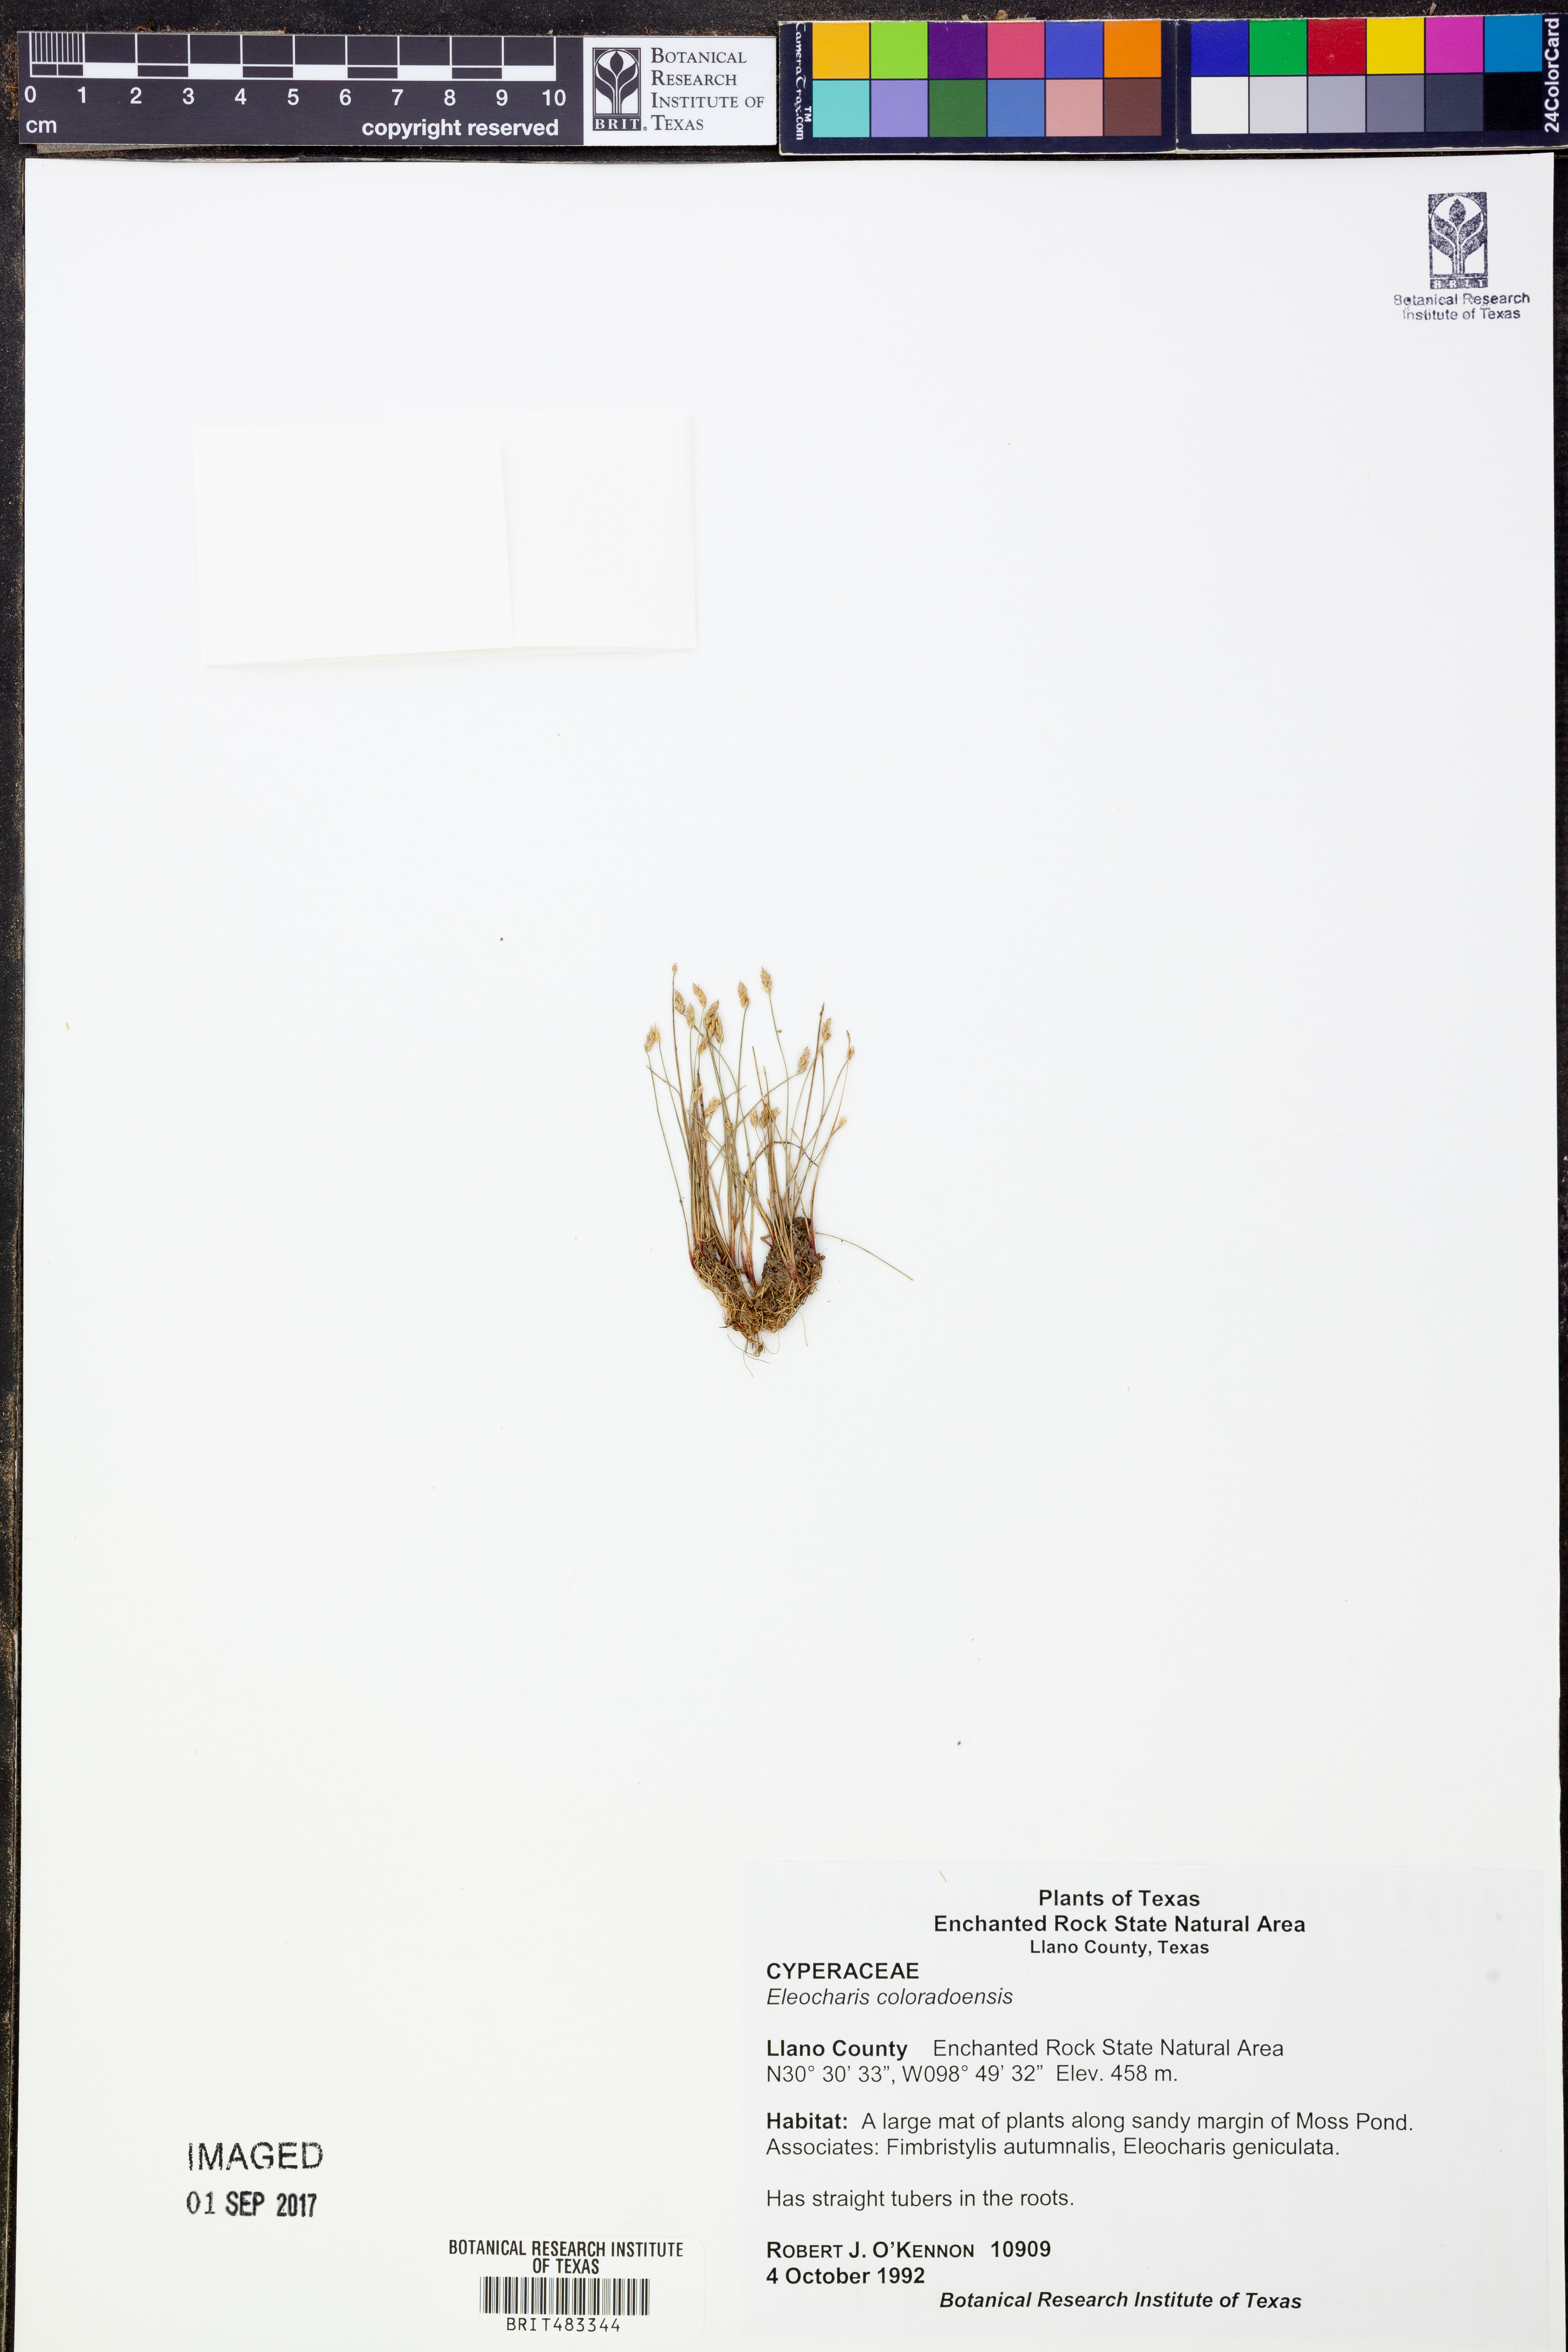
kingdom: Plantae
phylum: Tracheophyta
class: Liliopsida
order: Poales
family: Cyperaceae
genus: Eleocharis
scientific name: Eleocharis coloradoensis
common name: Colorado spikerush
